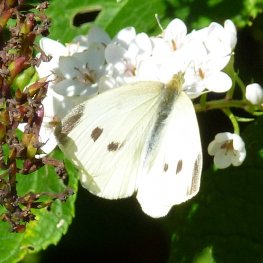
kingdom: Animalia
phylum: Arthropoda
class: Insecta
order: Lepidoptera
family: Pieridae
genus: Pieris
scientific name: Pieris rapae
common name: Cabbage White
